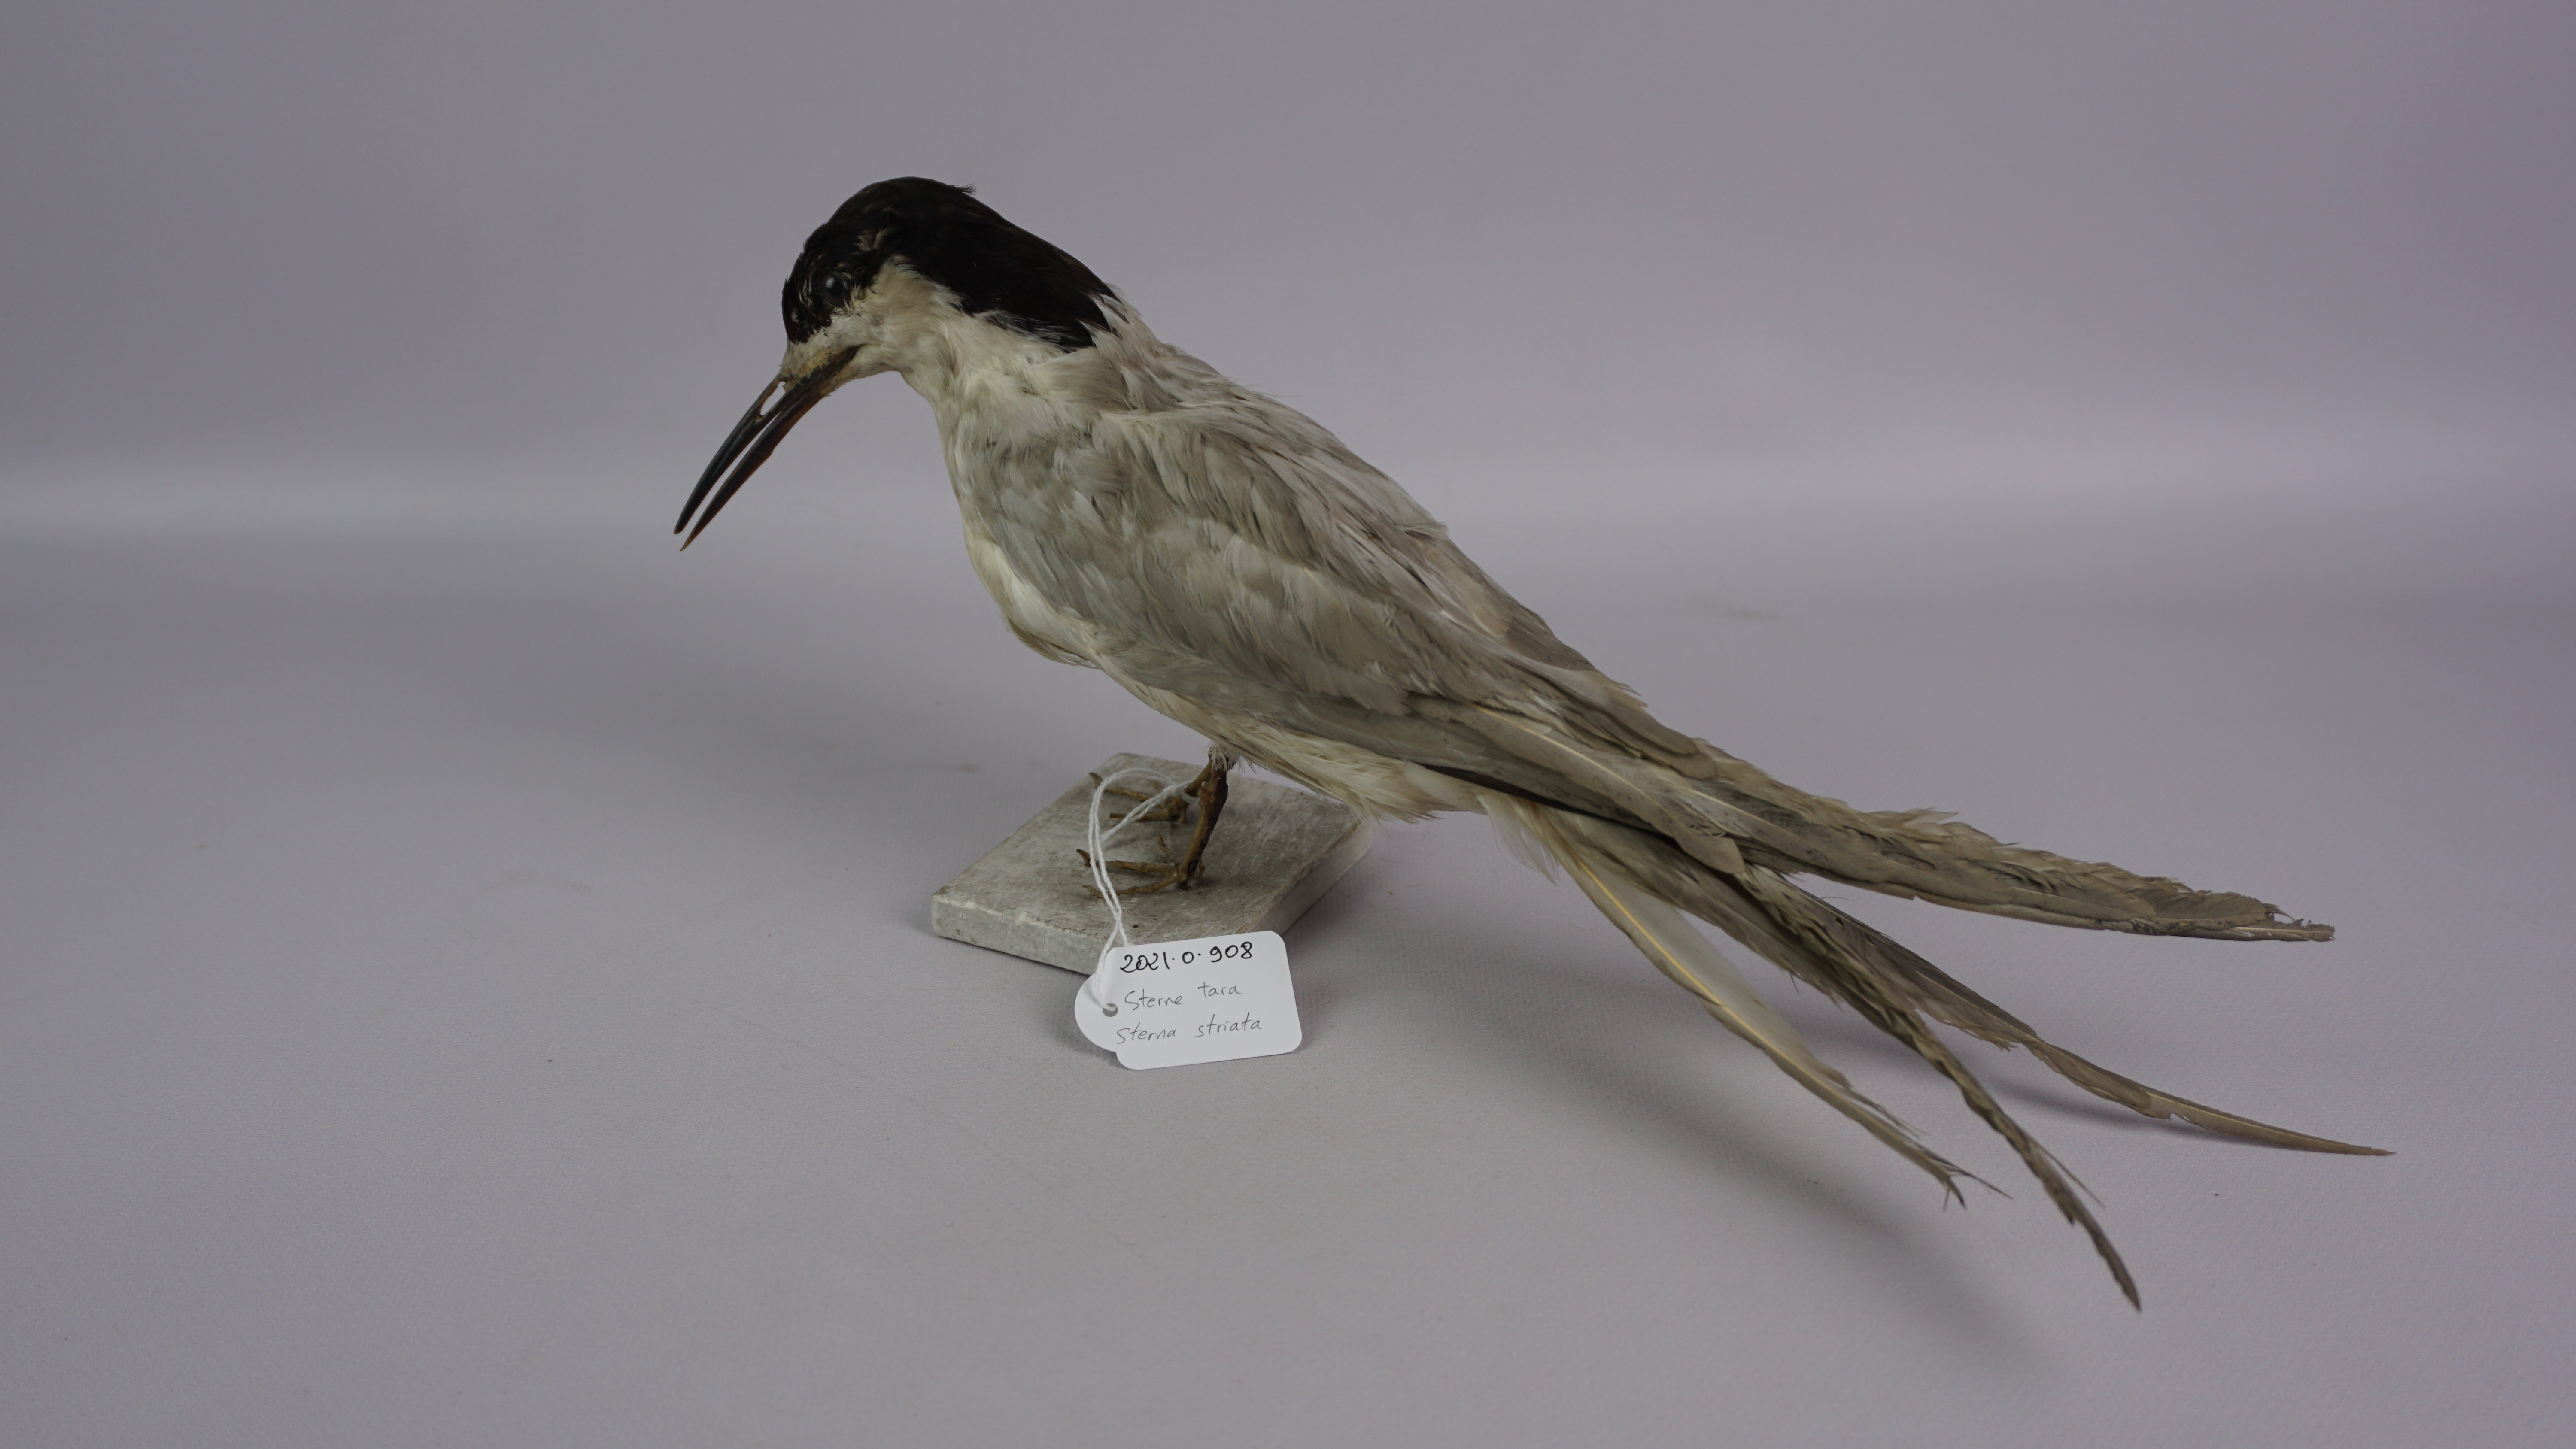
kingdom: Animalia
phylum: Chordata
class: Aves
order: Charadriiformes
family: Laridae
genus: Sterna
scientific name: Sterna striata
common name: White-fronted tern
